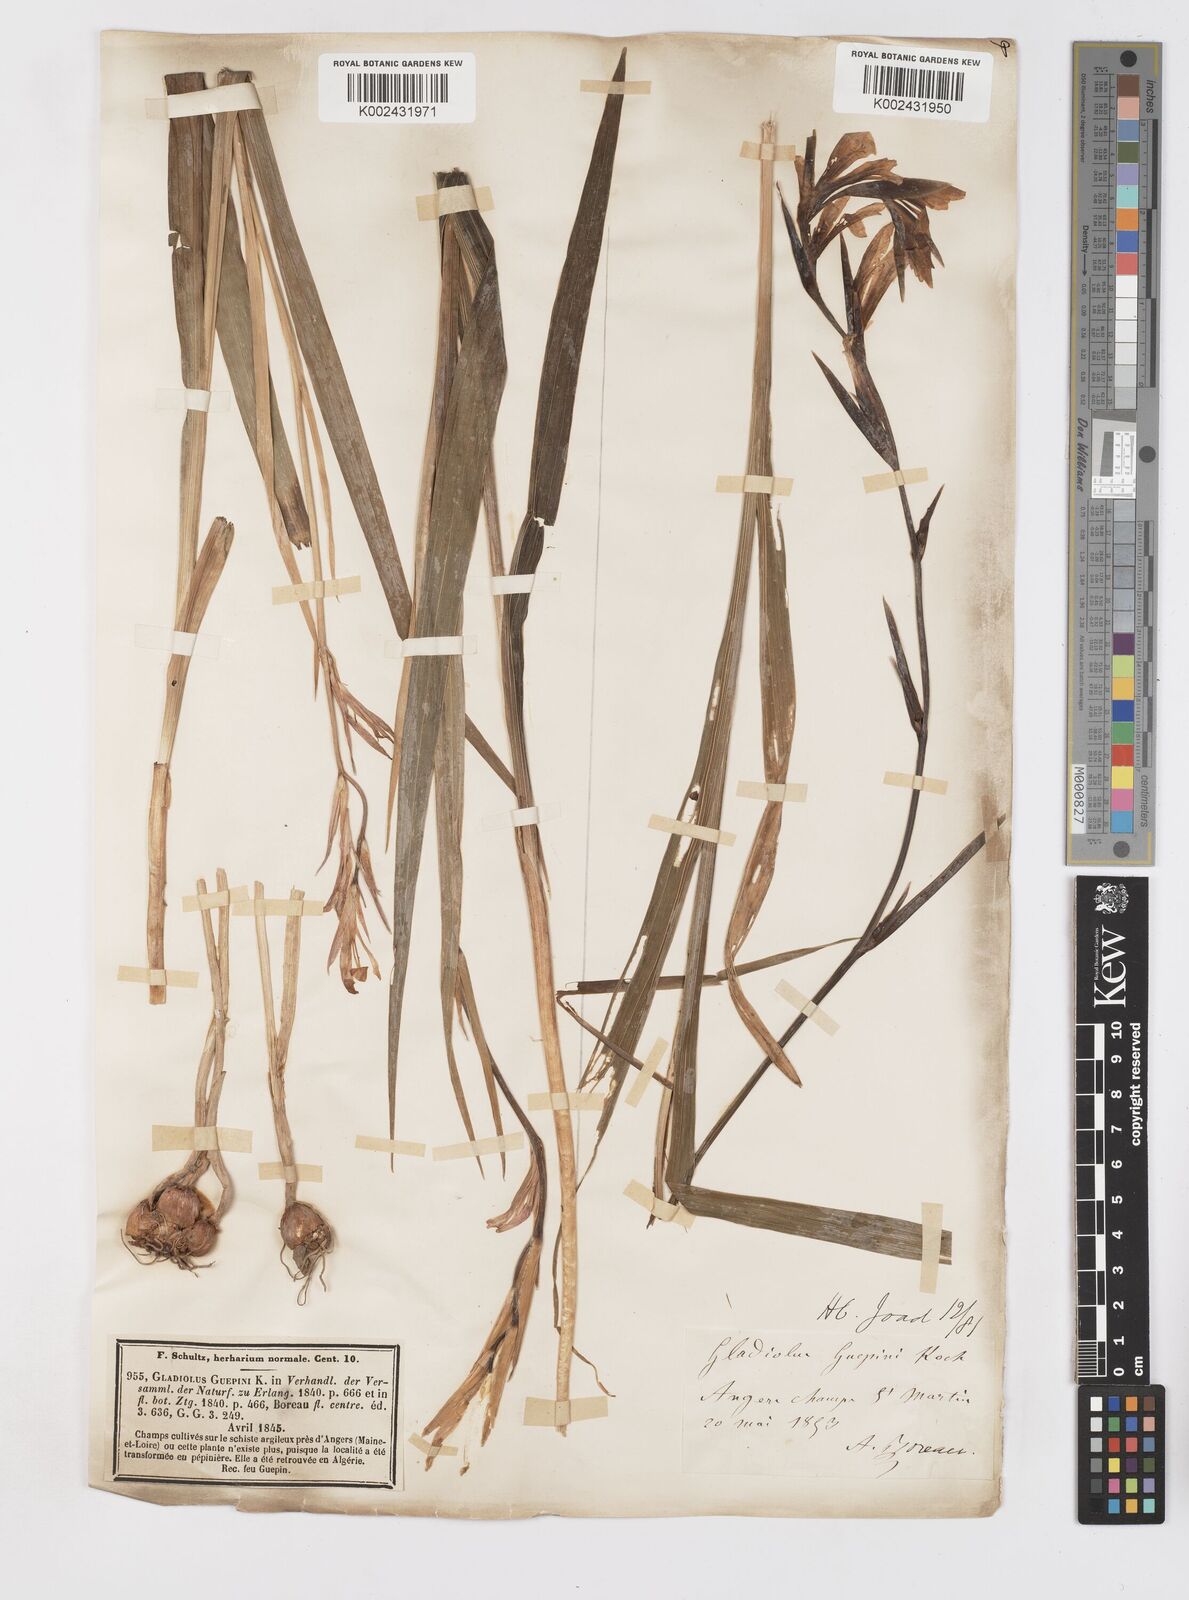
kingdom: Plantae
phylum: Tracheophyta
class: Liliopsida
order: Asparagales
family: Iridaceae
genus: Gladiolus
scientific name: Gladiolus italicus
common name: Field gladiolus
